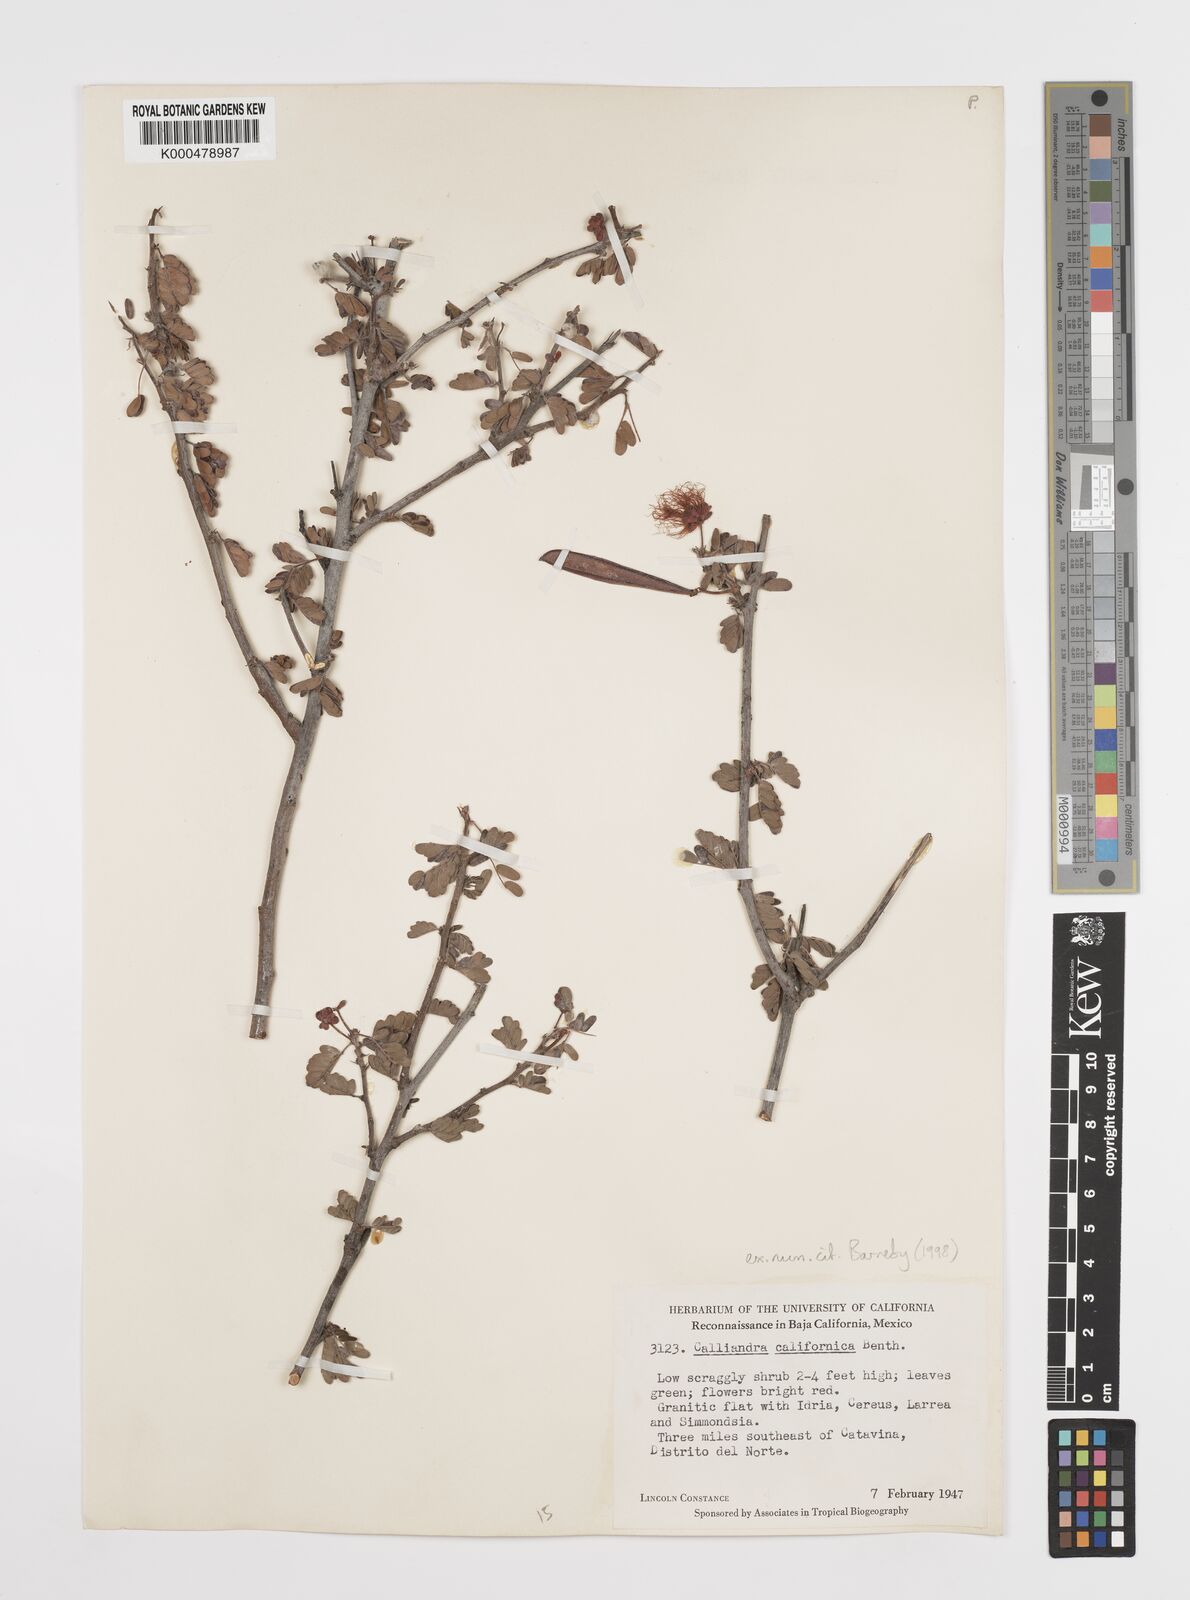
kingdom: Plantae
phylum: Tracheophyta
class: Magnoliopsida
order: Fabales
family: Fabaceae
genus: Calliandra
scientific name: Calliandra californica
